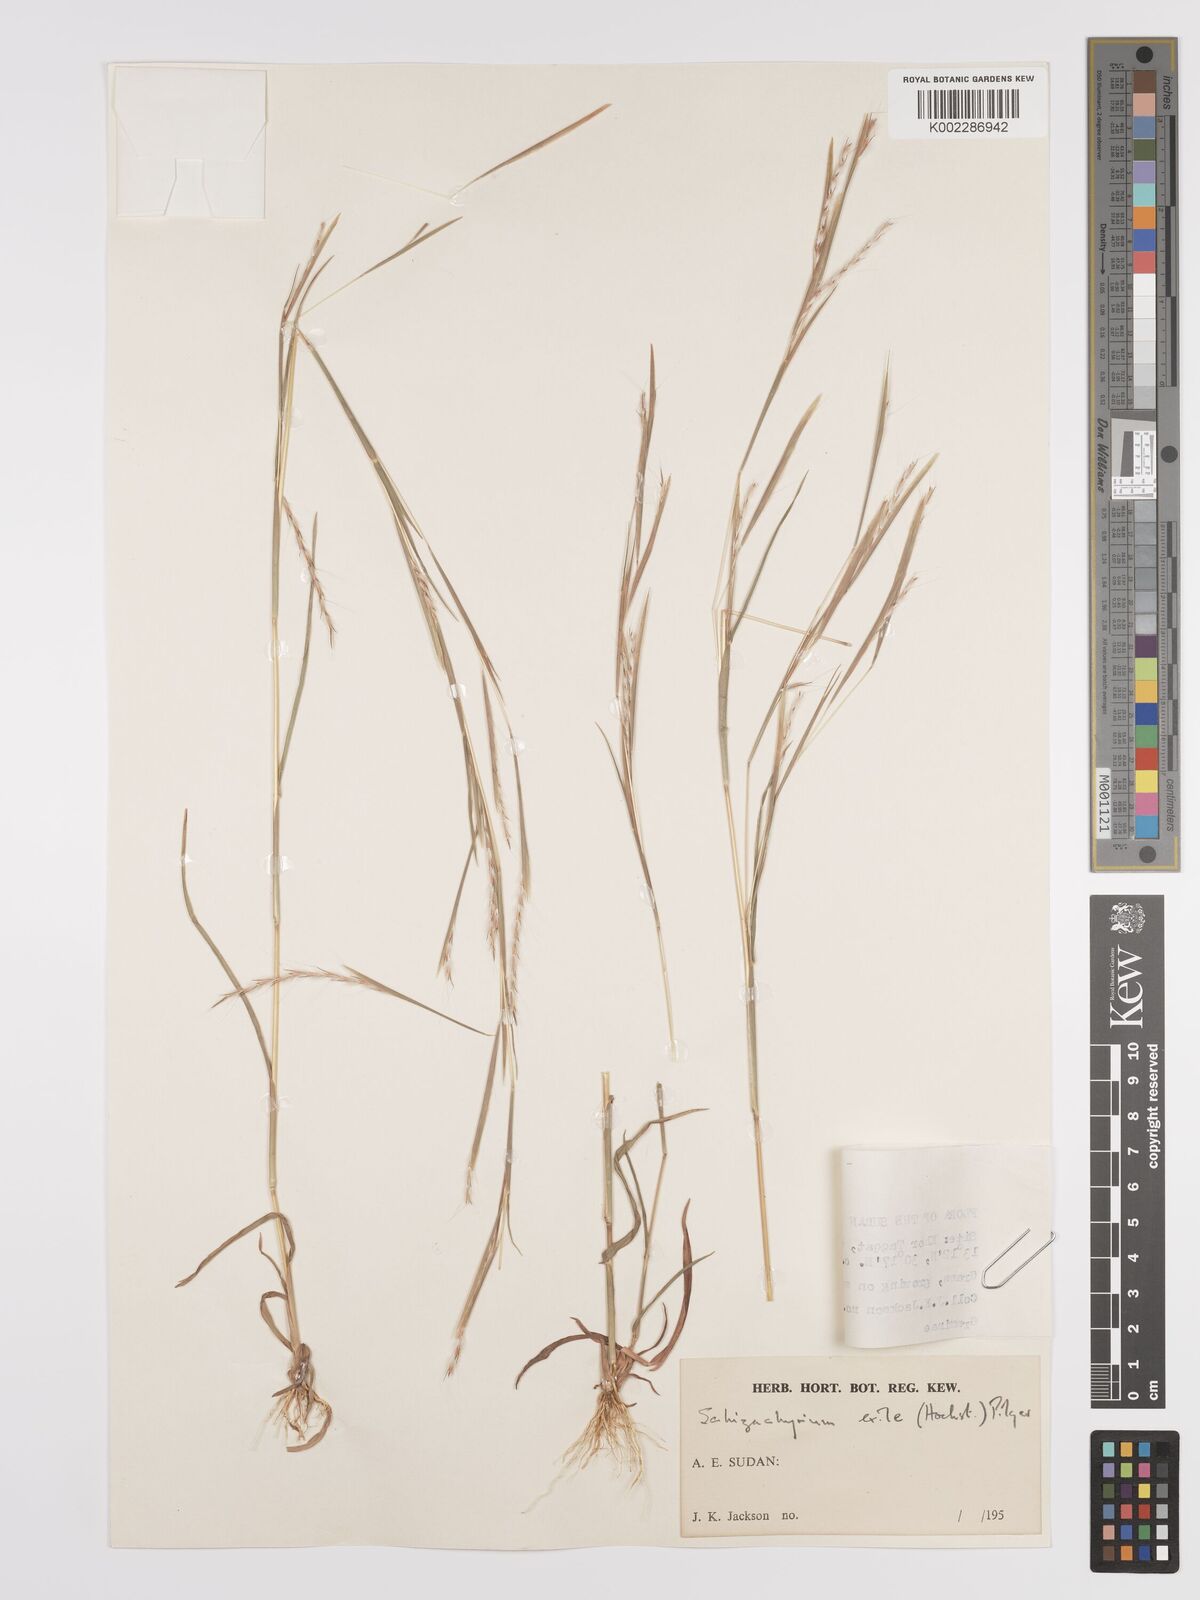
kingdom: Plantae
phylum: Tracheophyta
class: Liliopsida
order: Poales
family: Poaceae
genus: Schizachyrium
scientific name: Schizachyrium exile
